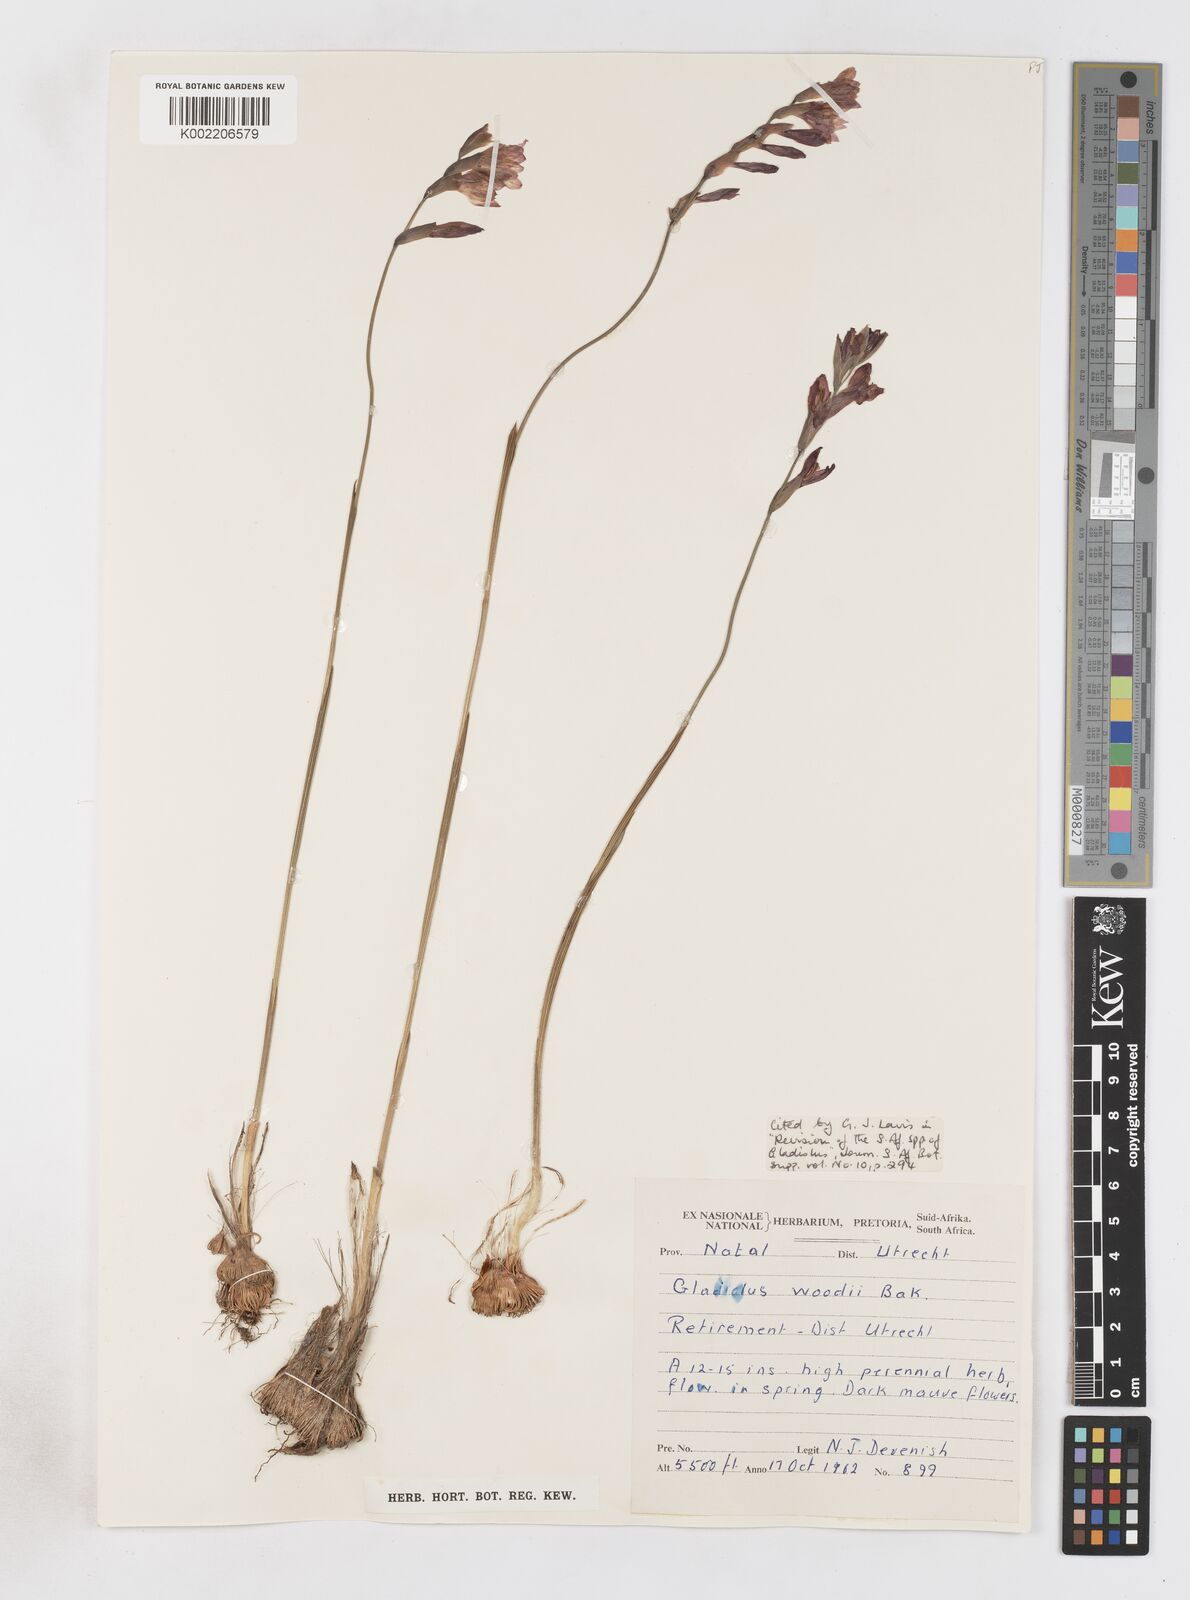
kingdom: Plantae
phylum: Tracheophyta
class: Liliopsida
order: Asparagales
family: Iridaceae
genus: Gladiolus
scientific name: Gladiolus pubigerus
